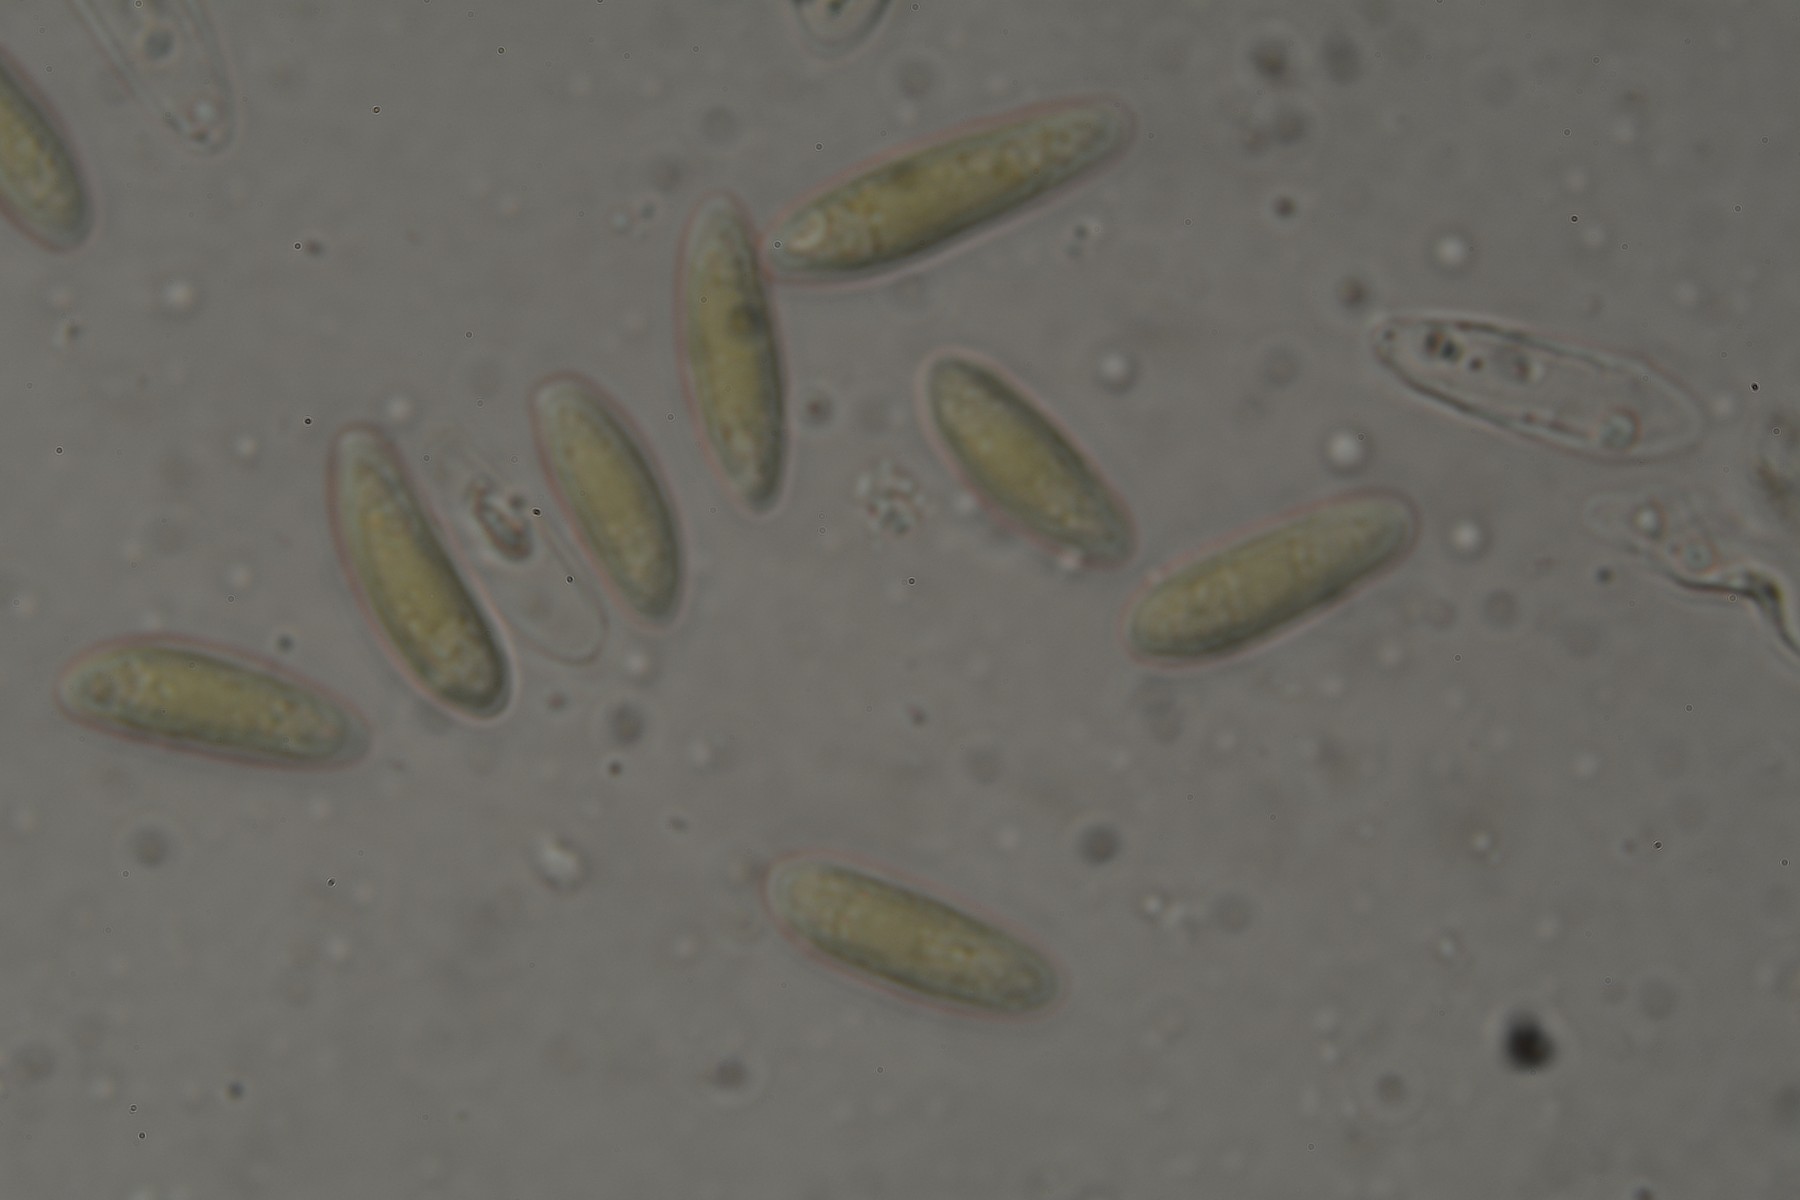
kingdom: Fungi
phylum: Ascomycota
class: Leotiomycetes
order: Helotiales
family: Helotiaceae
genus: Hymenoscyphus
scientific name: Hymenoscyphus calyculus
